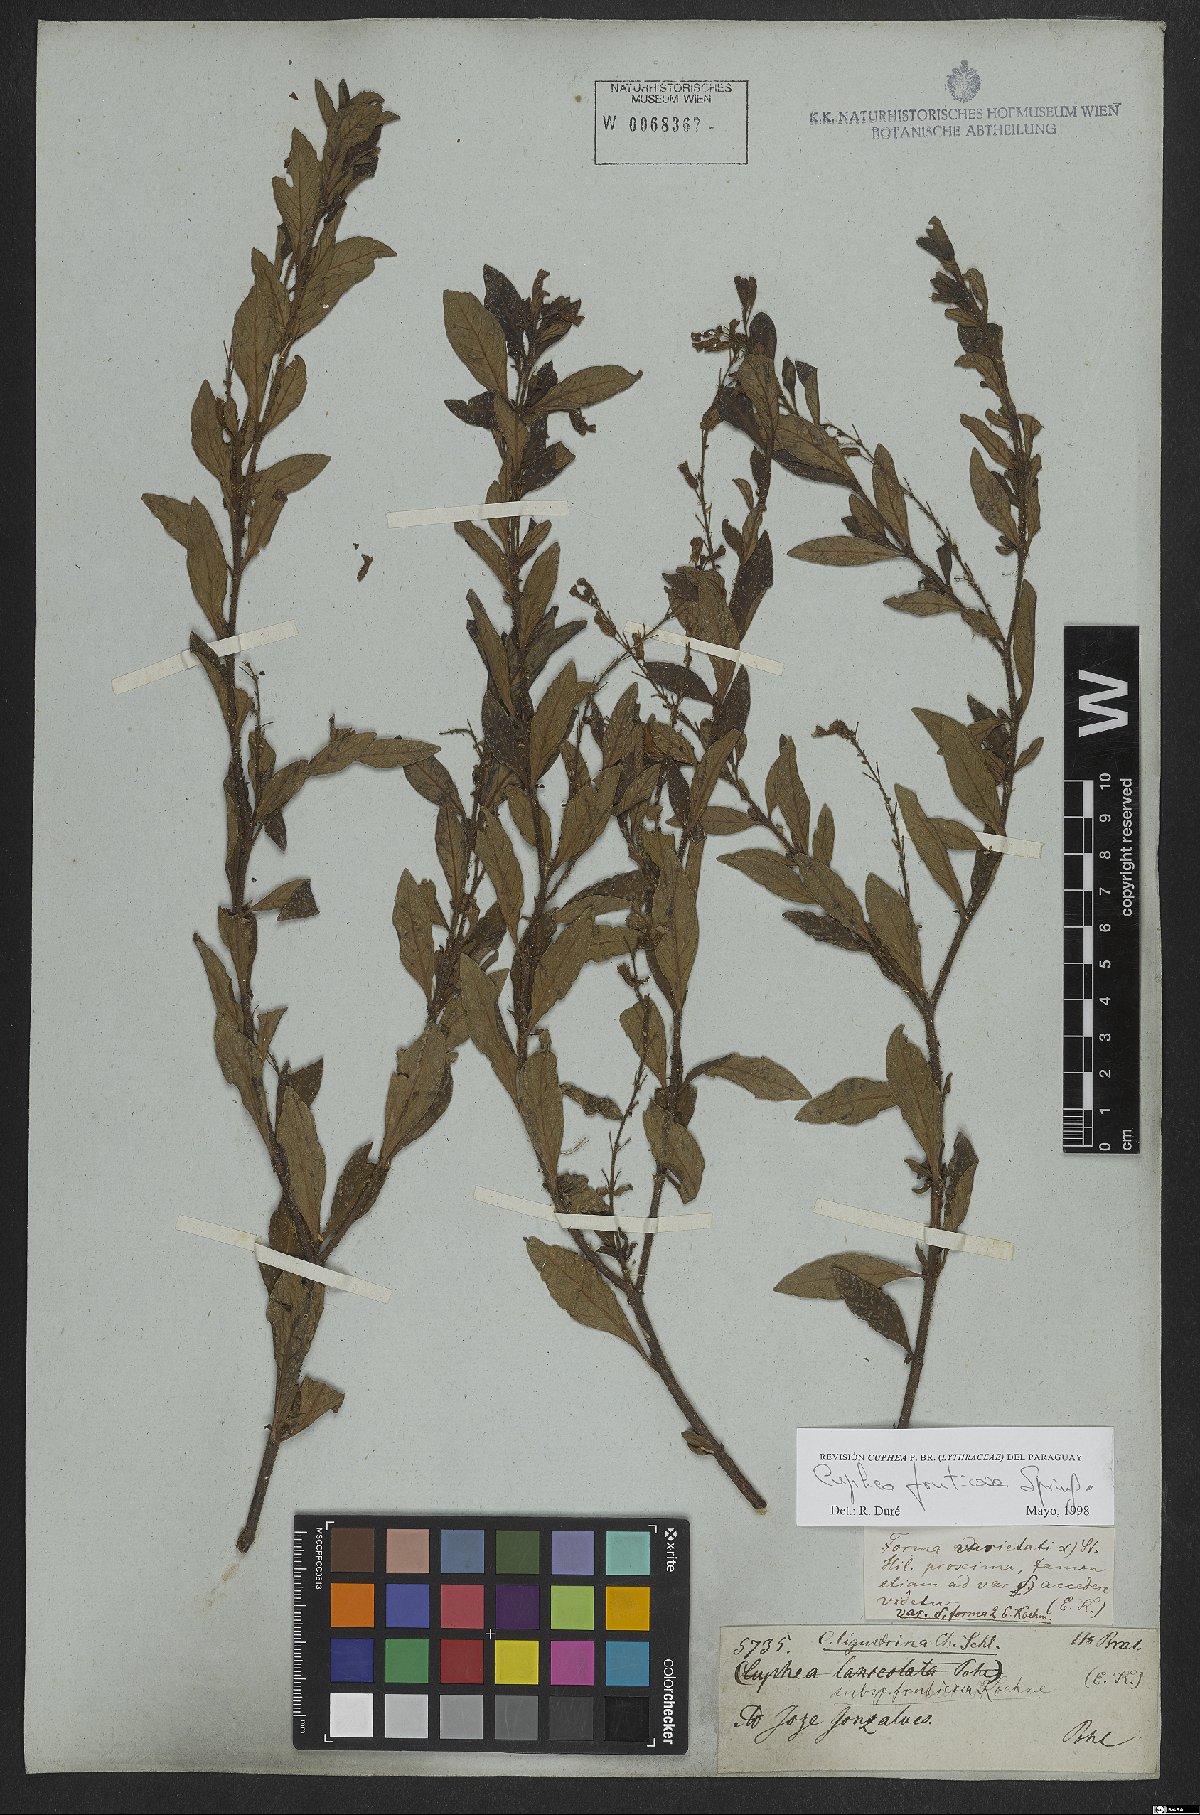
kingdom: Plantae
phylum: Tracheophyta
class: Magnoliopsida
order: Myrtales
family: Lythraceae
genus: Cuphea
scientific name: Cuphea fruticosa
